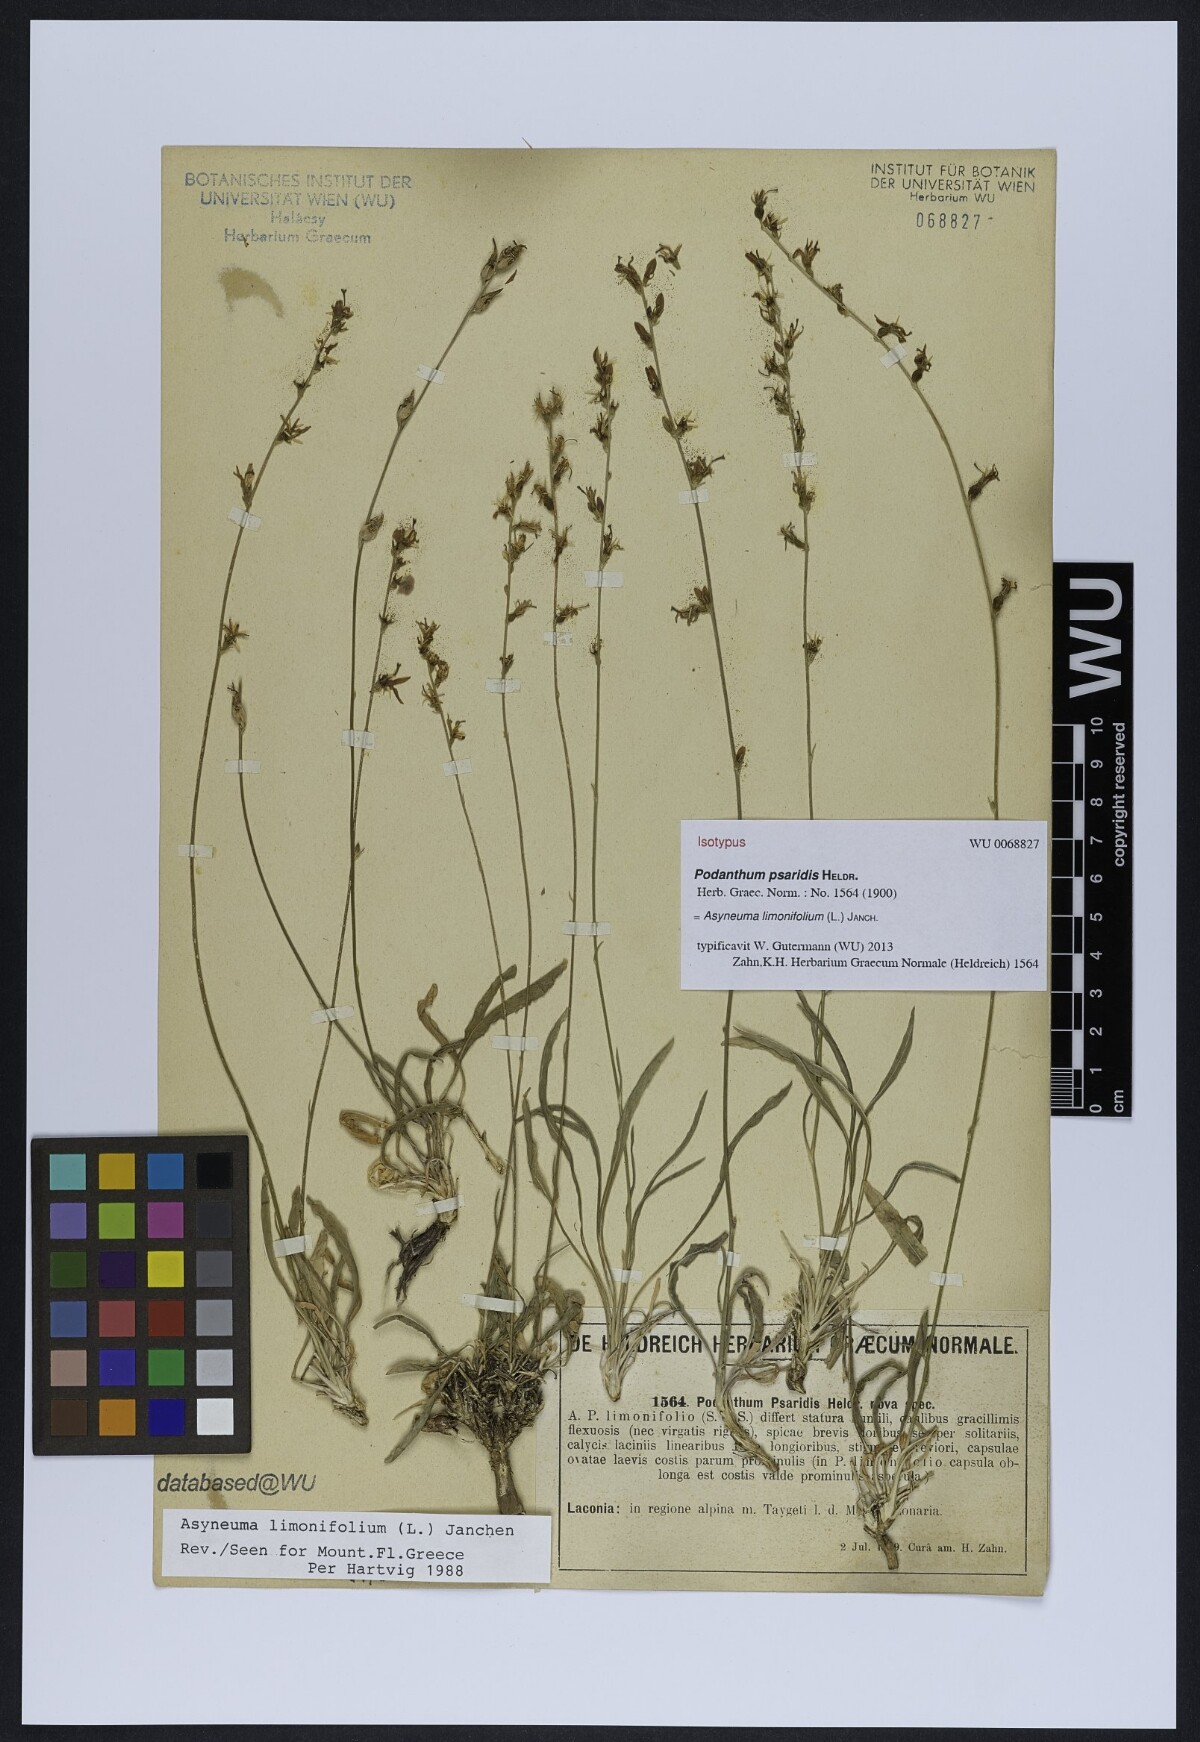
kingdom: Plantae
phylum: Tracheophyta
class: Magnoliopsida
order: Asterales
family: Campanulaceae
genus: Asyneuma
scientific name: Asyneuma limonifolium
